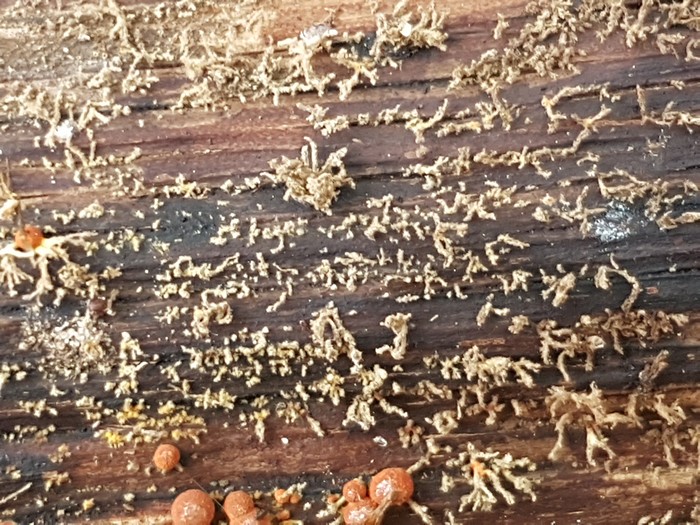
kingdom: Fungi
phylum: Ascomycota
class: Sordariomycetes
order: Xylariales
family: Hypoxylaceae
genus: Hypoxylon
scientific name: Hypoxylon howeanum
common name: halvkugleformet kulbær
